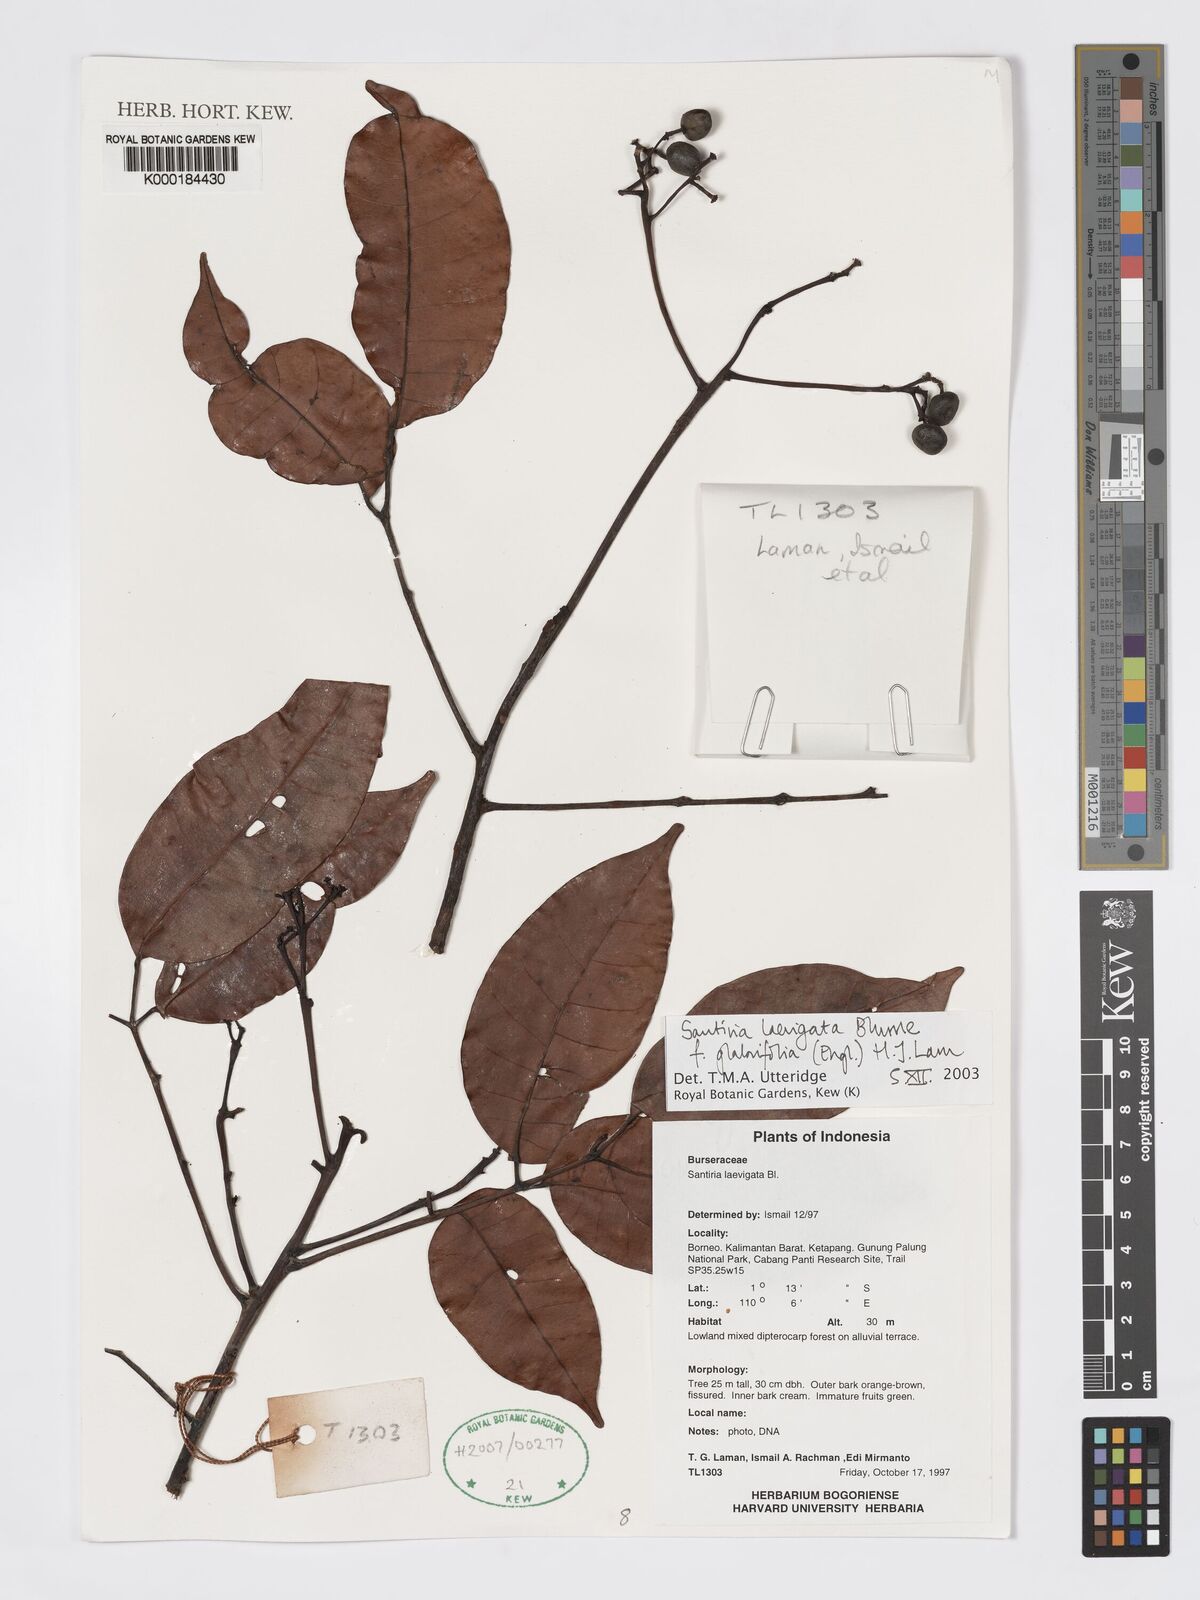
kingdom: Plantae
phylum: Tracheophyta
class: Magnoliopsida
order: Sapindales
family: Burseraceae
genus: Santiria
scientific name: Santiria laevigata
